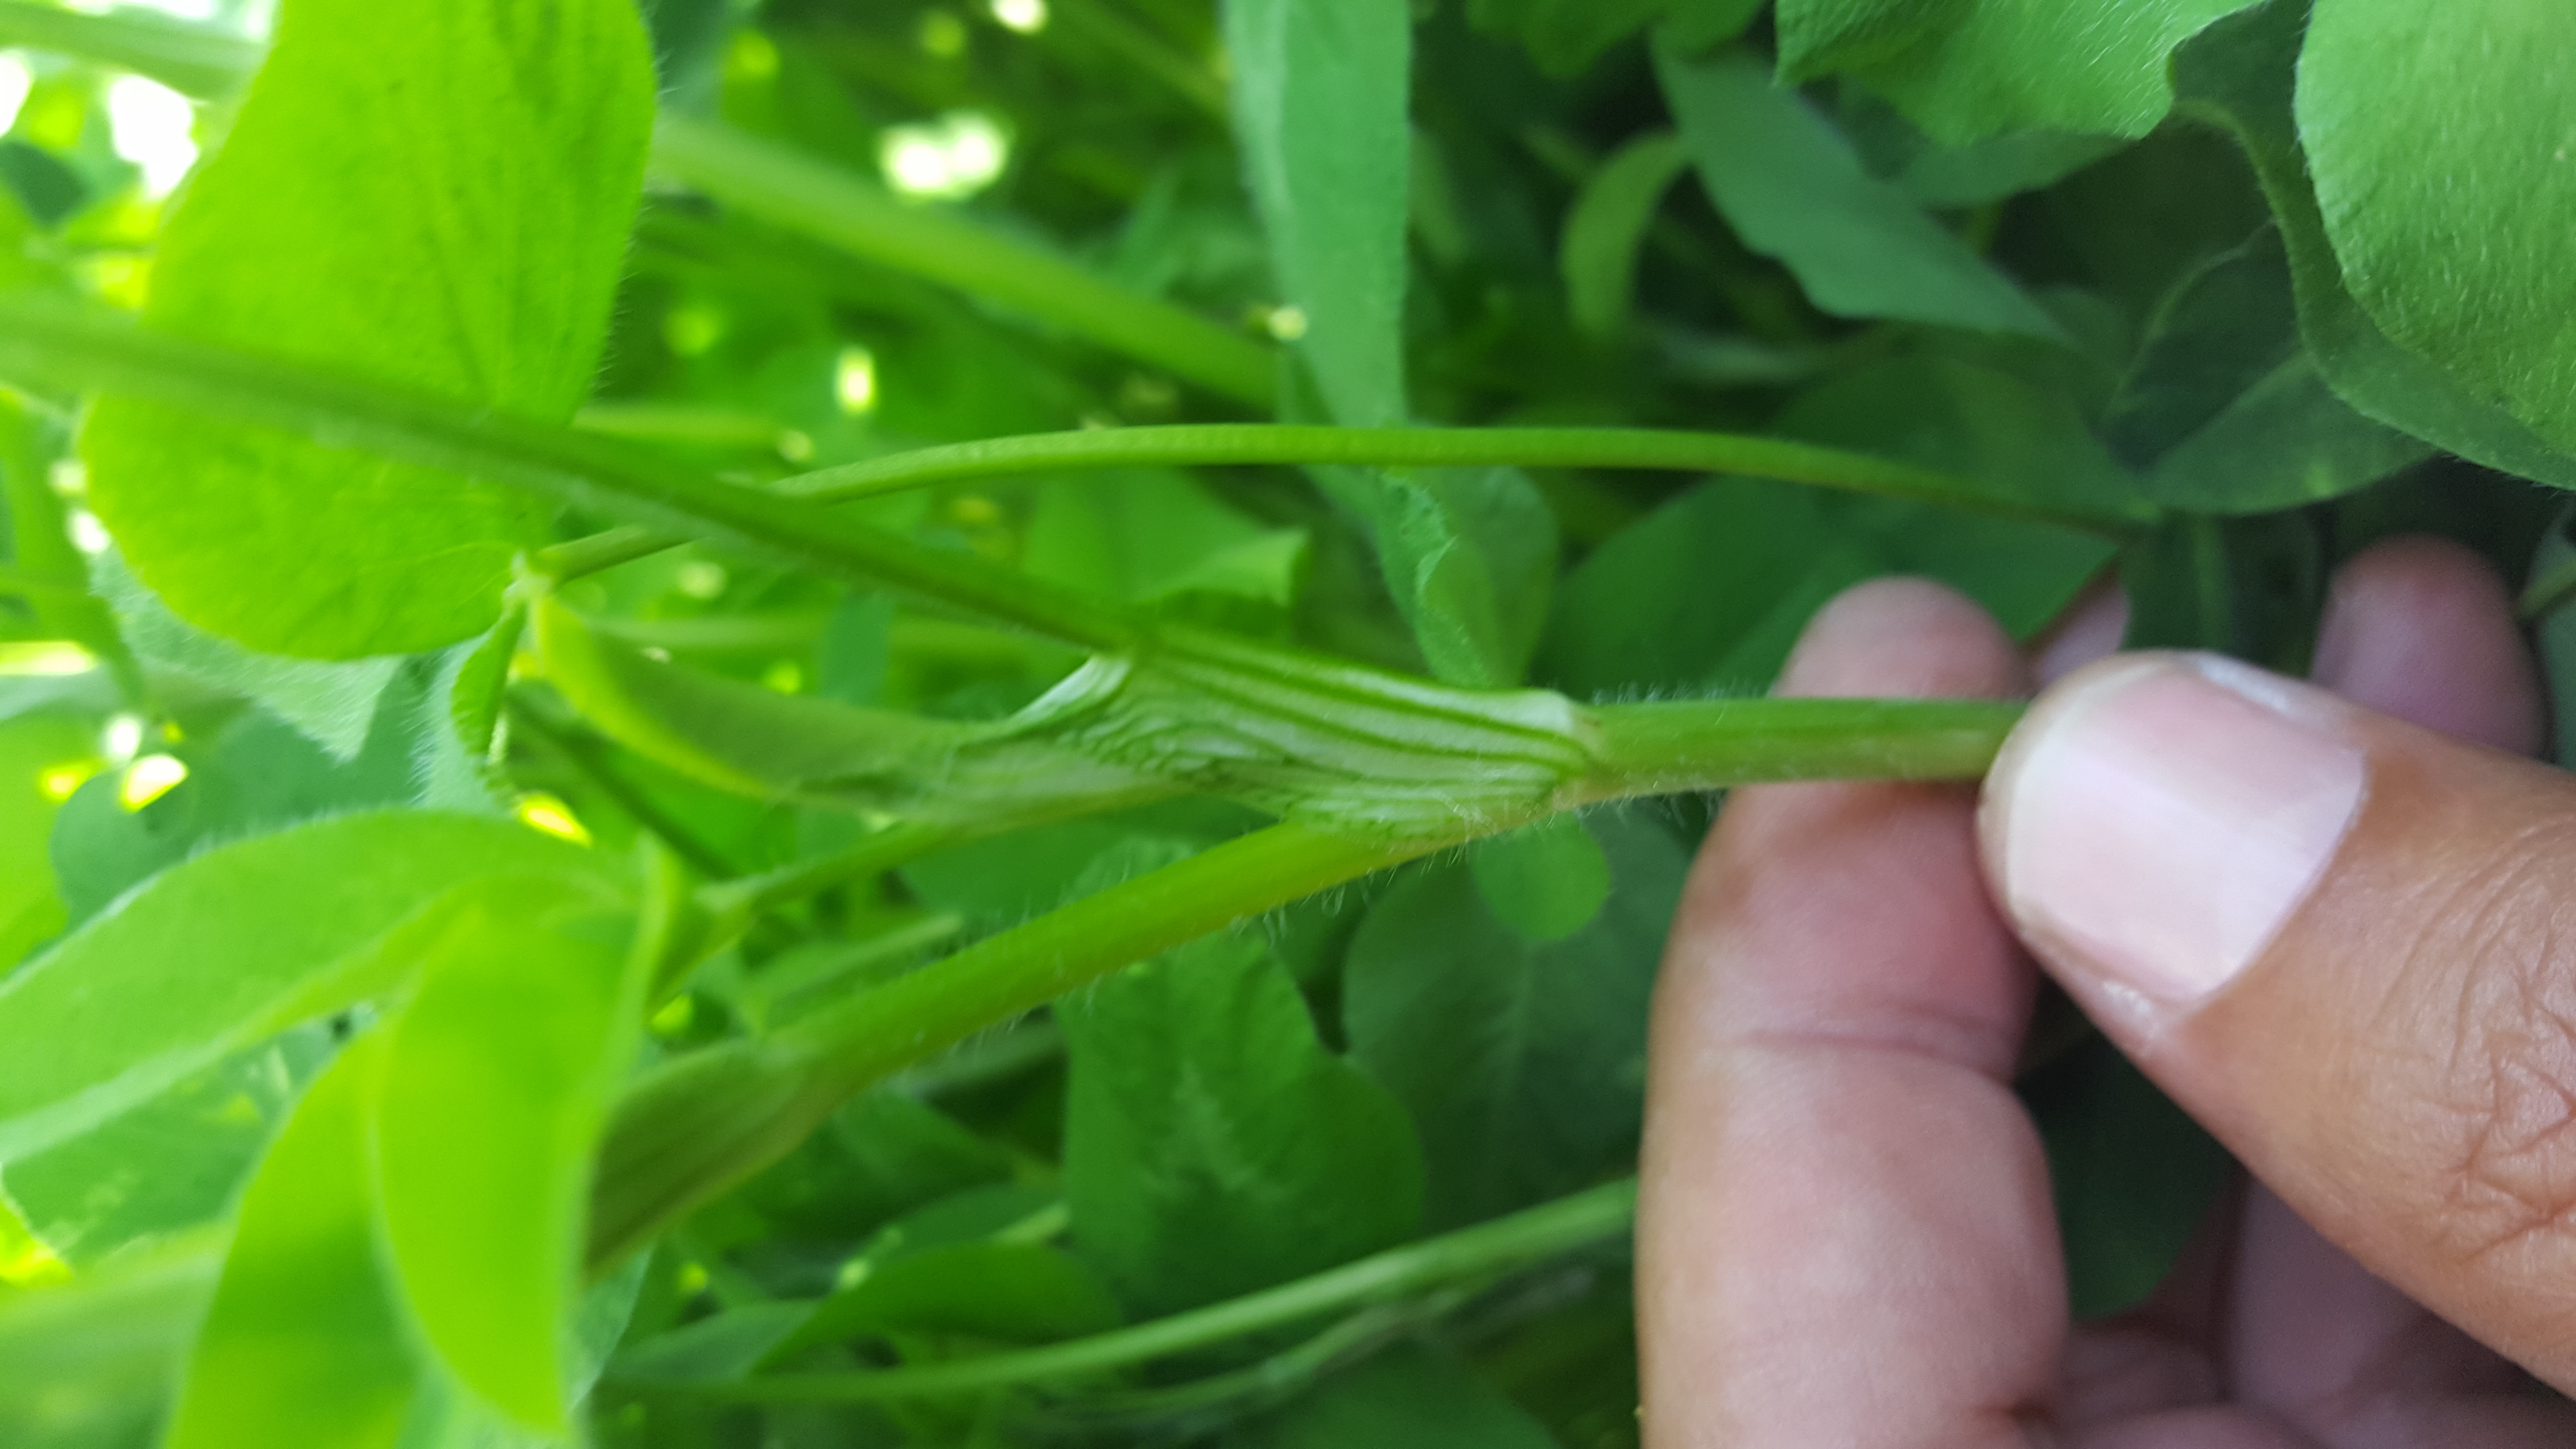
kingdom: Plantae
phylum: Tracheophyta
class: Magnoliopsida
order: Fabales
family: Fabaceae
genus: Trifolium
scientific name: Trifolium pratense
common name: Red clover
